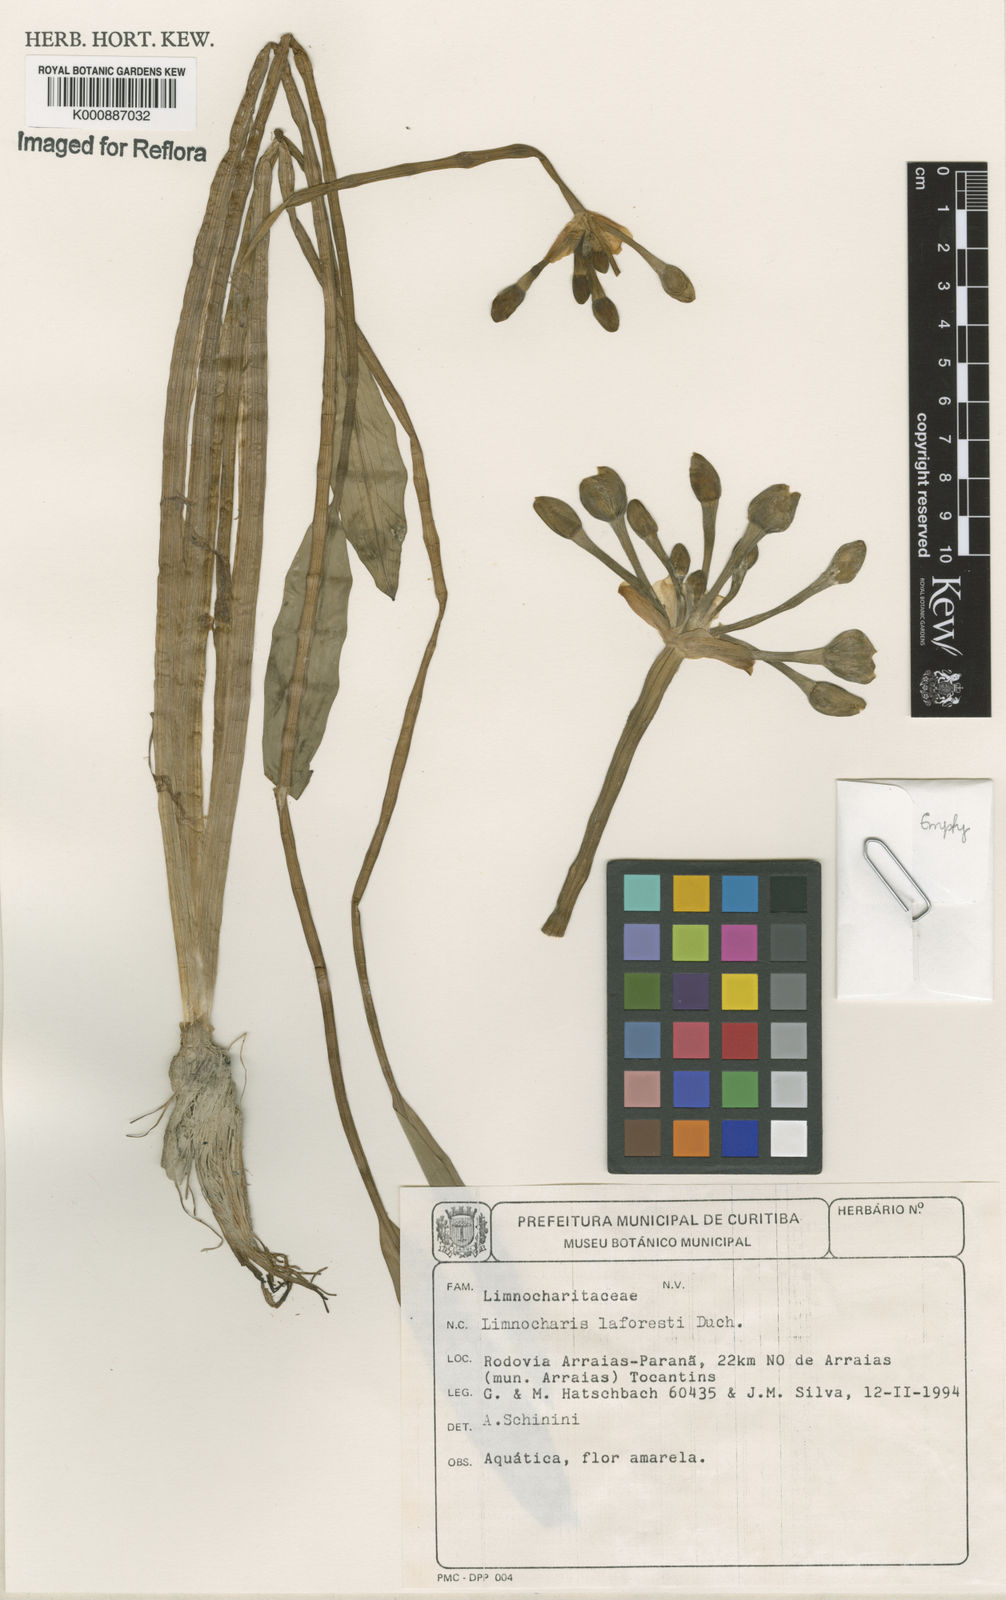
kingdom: Plantae
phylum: Tracheophyta
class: Liliopsida
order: Alismatales
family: Alismataceae
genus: Limnocharis
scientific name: Limnocharis laforestii
